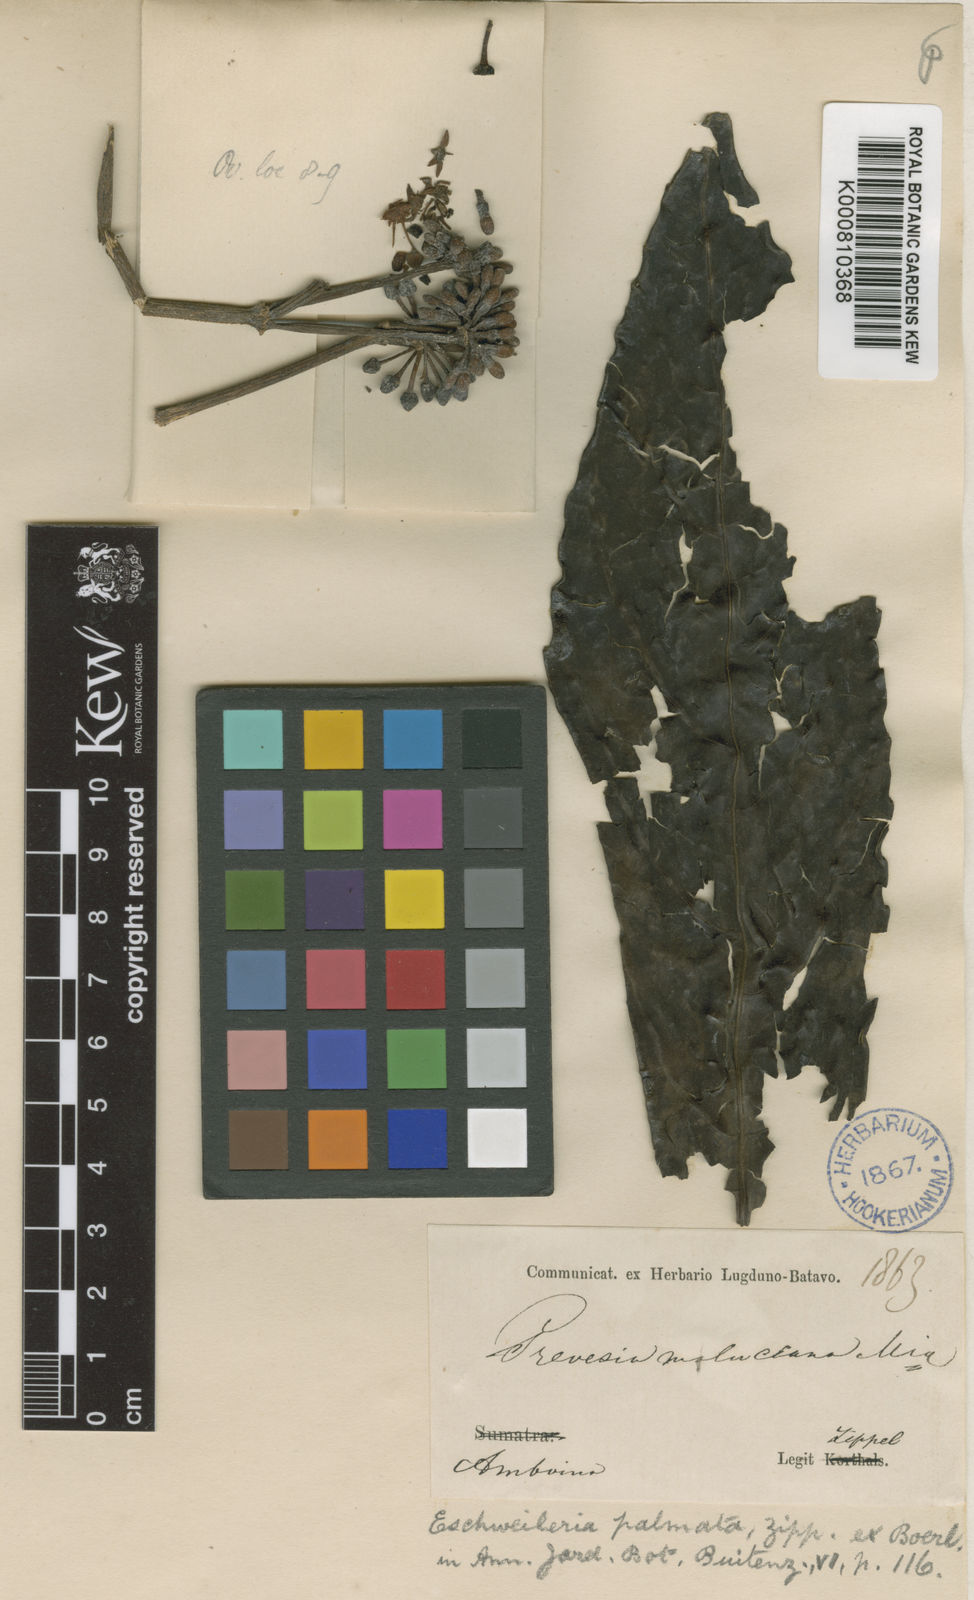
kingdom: Plantae
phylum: Tracheophyta
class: Magnoliopsida
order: Apiales
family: Araliaceae
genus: Osmoxylon
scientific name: Osmoxylon palmatum
